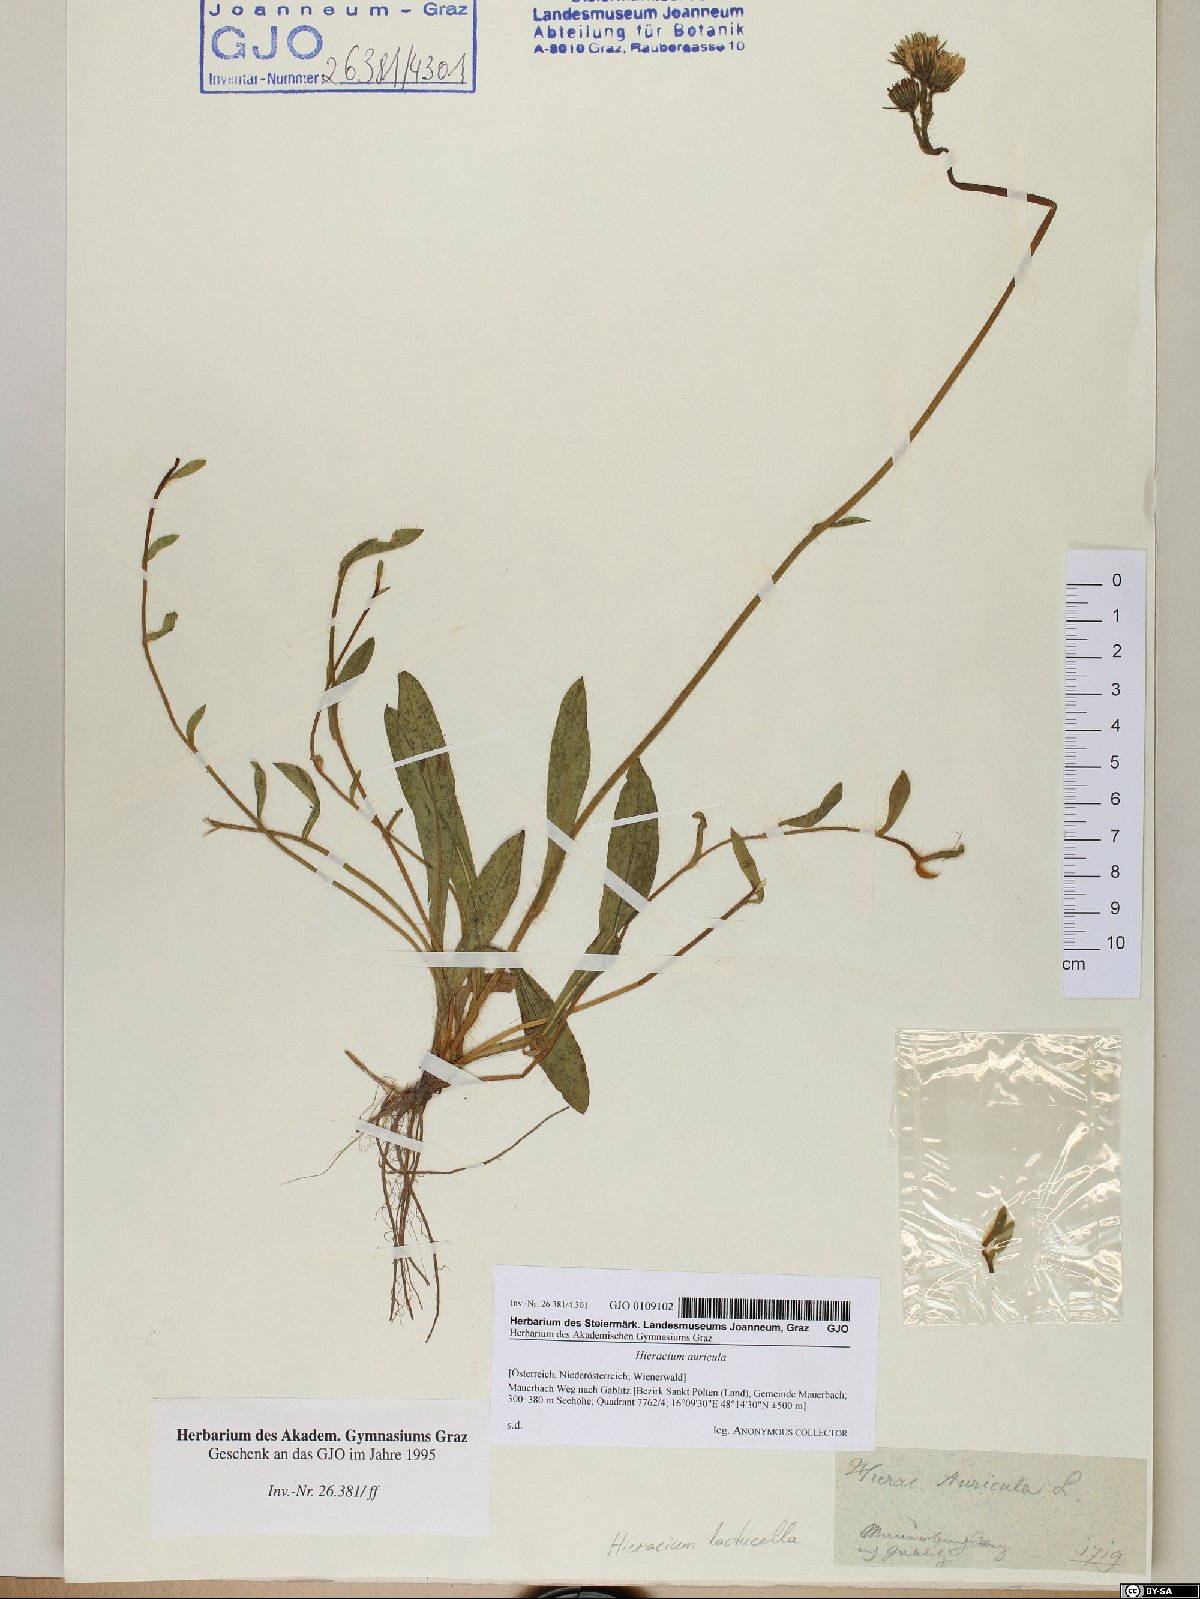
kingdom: Plantae
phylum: Tracheophyta
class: Magnoliopsida
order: Asterales
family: Asteraceae
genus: Hieracium
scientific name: Hieracium auricula
